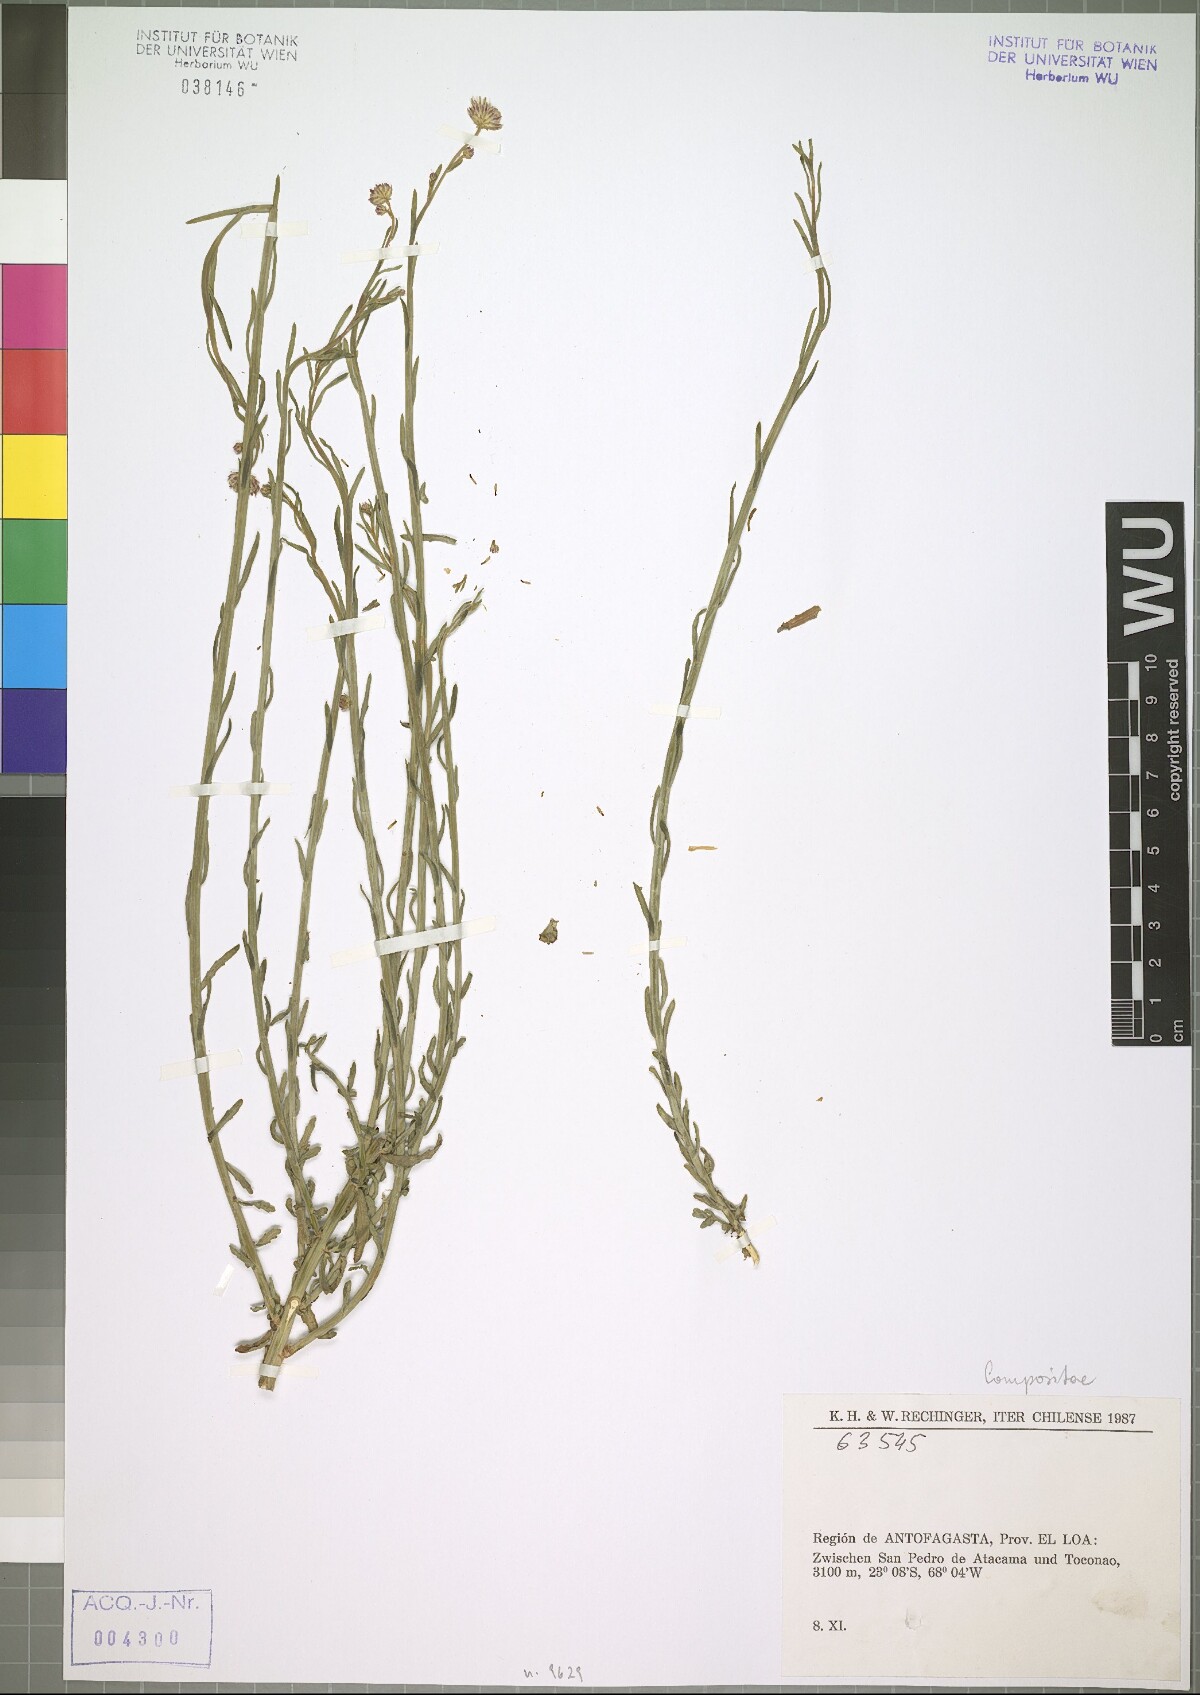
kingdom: Plantae
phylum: Tracheophyta
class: Magnoliopsida
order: Asterales
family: Asteraceae
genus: Baccharis
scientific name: Baccharis juncea
